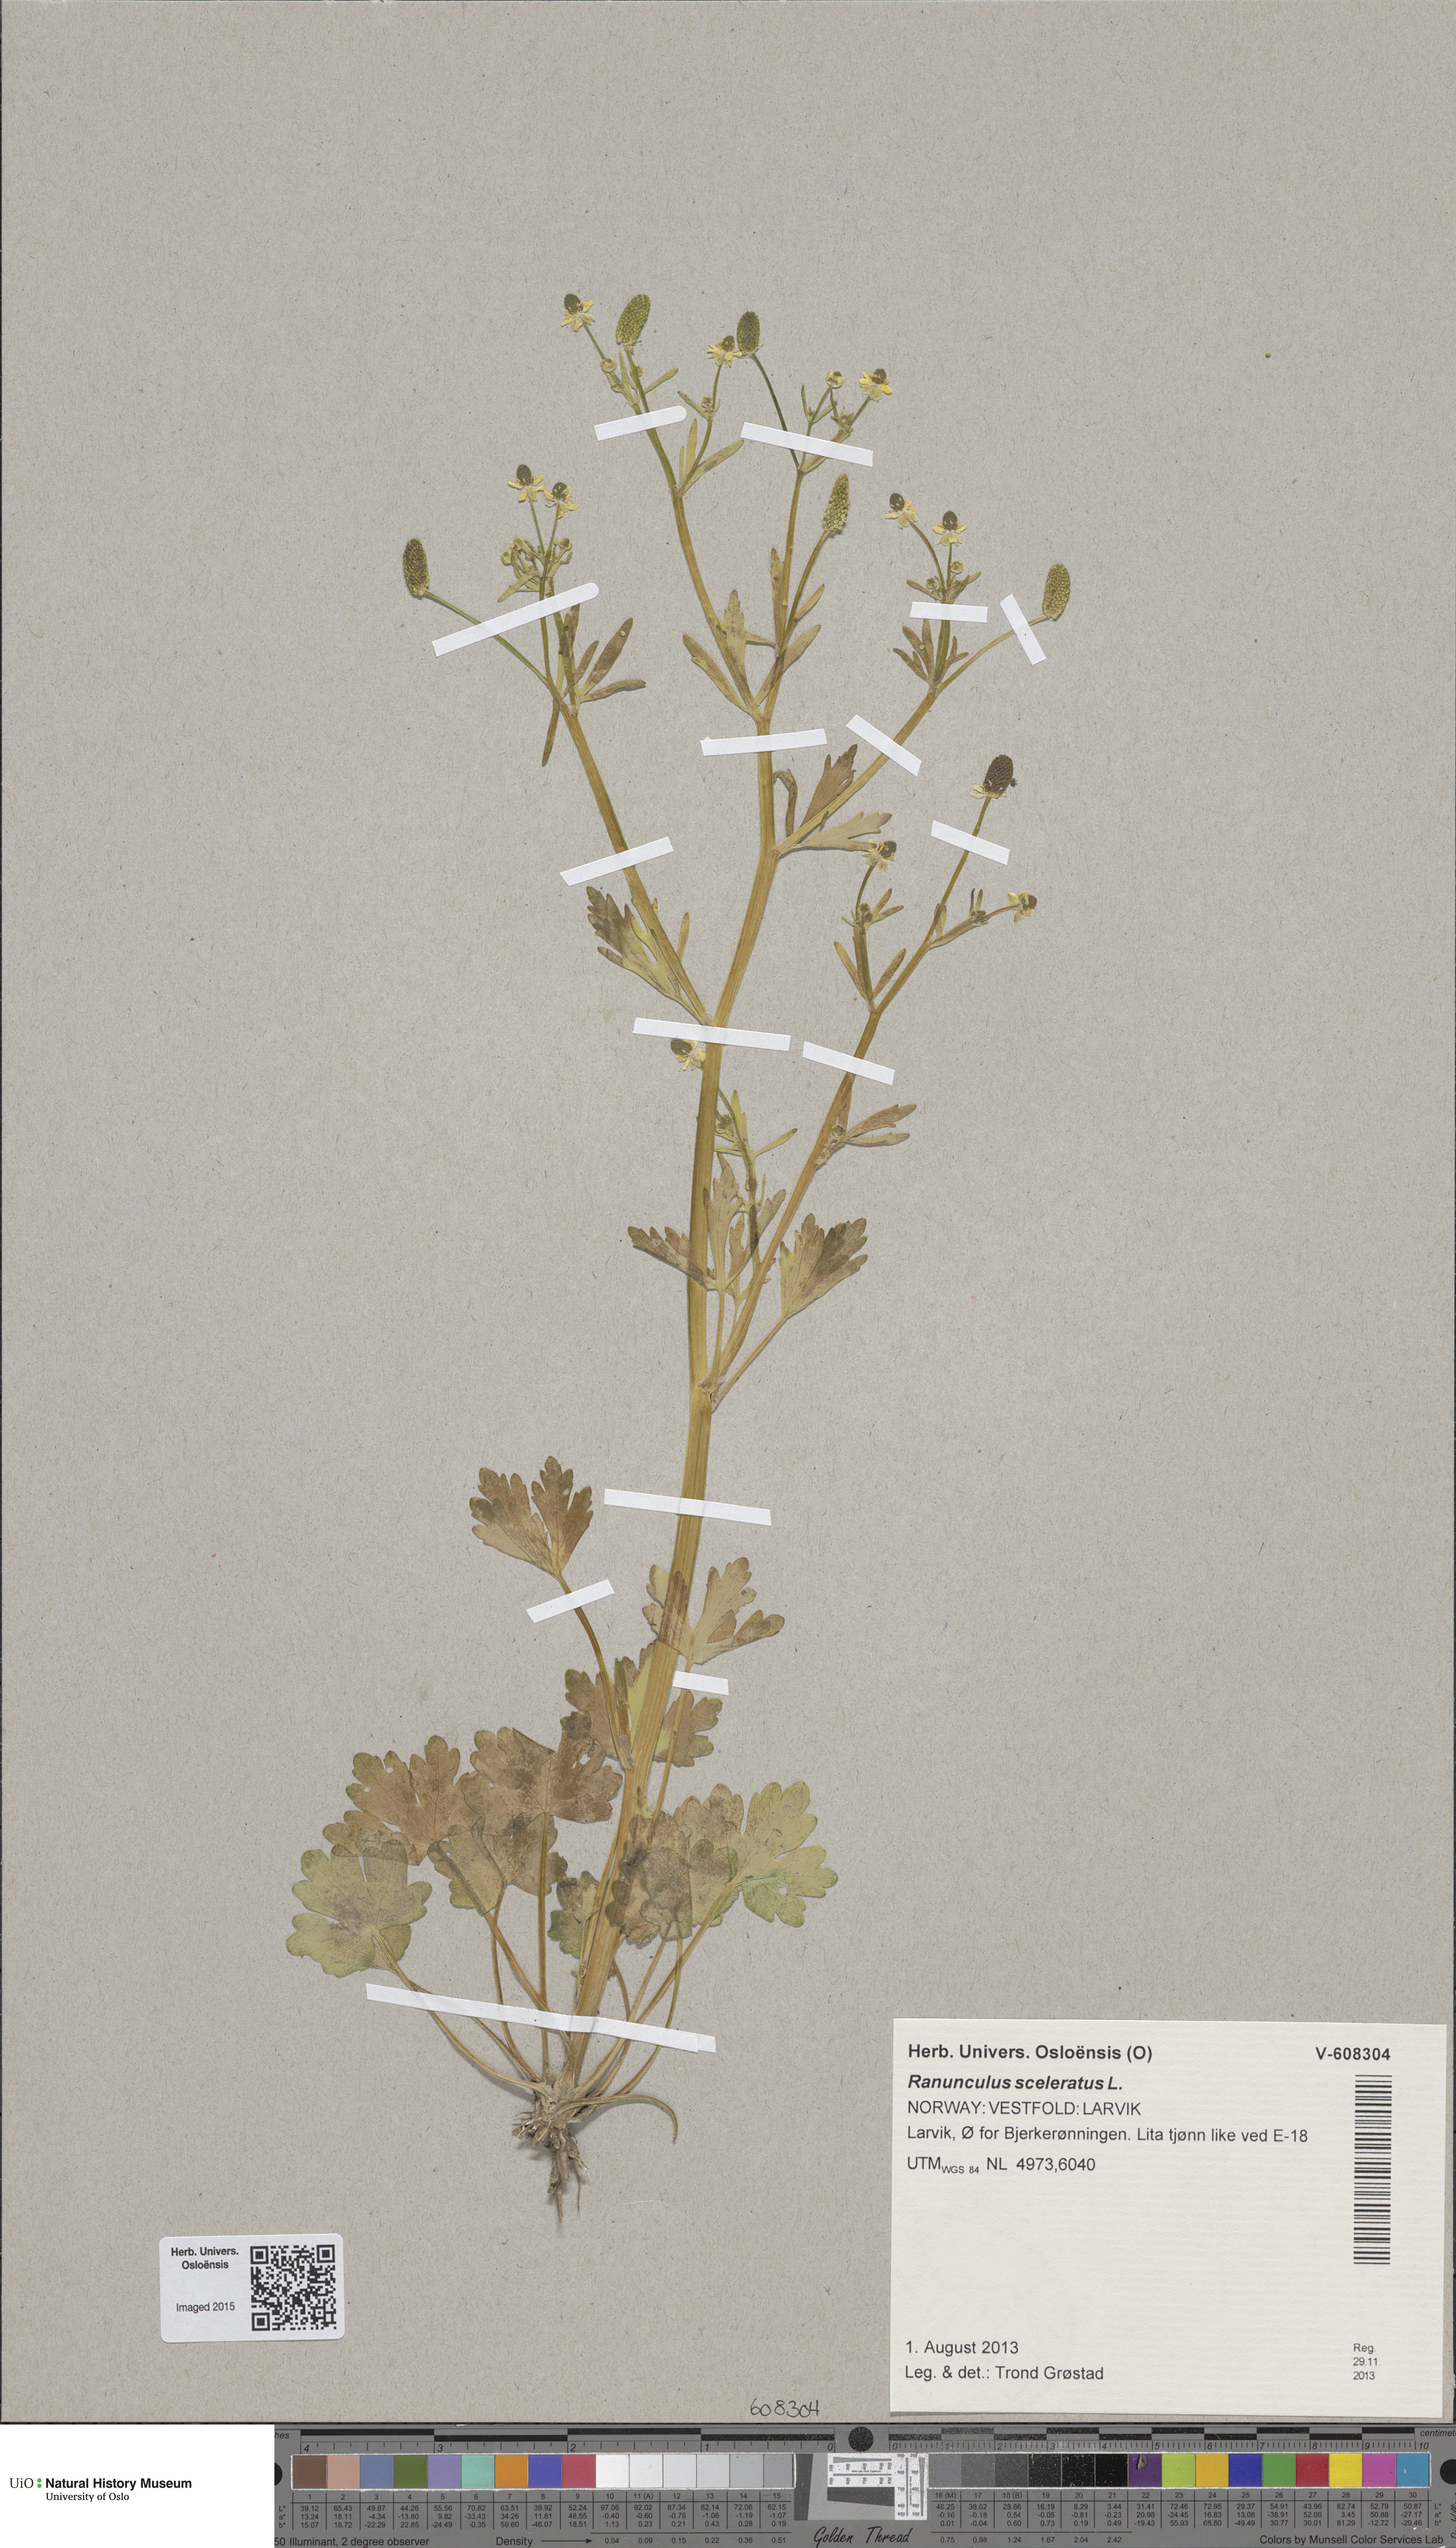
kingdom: Plantae
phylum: Tracheophyta
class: Magnoliopsida
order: Ranunculales
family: Ranunculaceae
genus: Ranunculus
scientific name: Ranunculus sceleratus
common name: Celery-leaved buttercup
